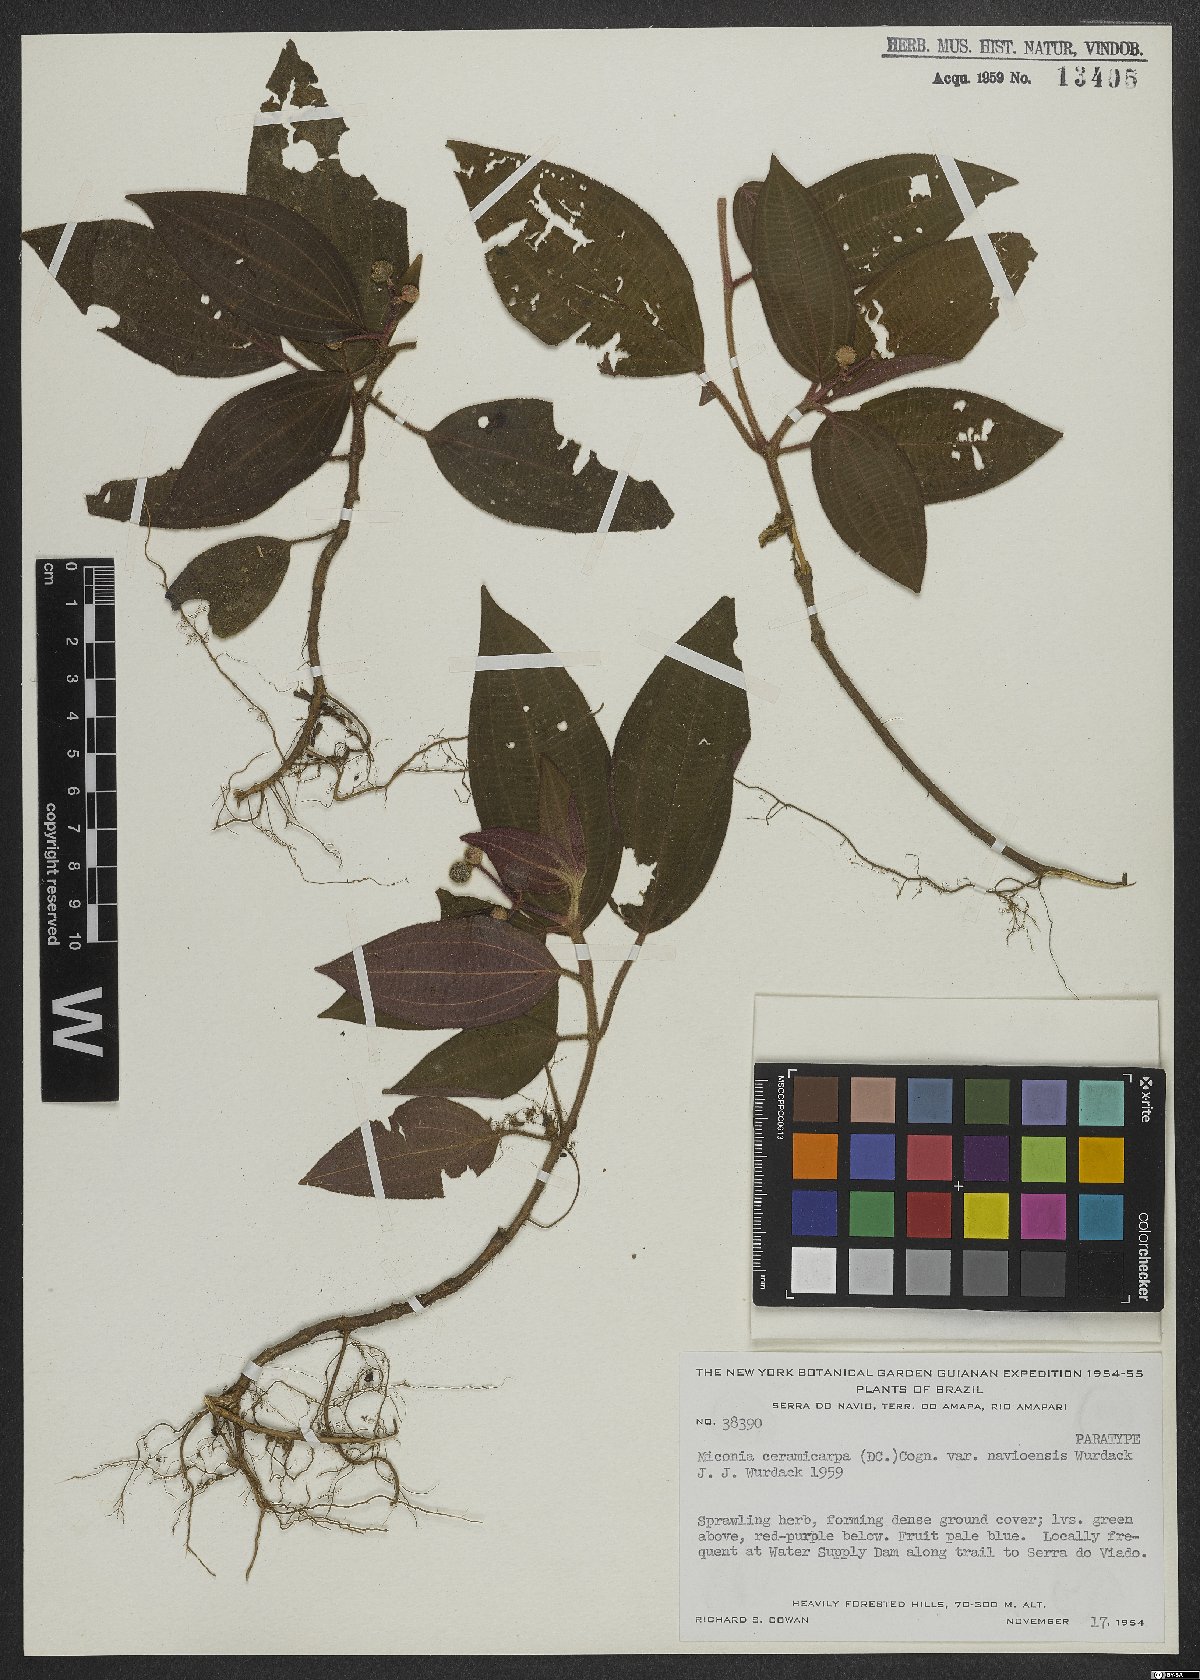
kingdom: Plantae
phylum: Tracheophyta
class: Magnoliopsida
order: Myrtales
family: Melastomataceae
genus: Miconia
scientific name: Miconia ceramicarpa
